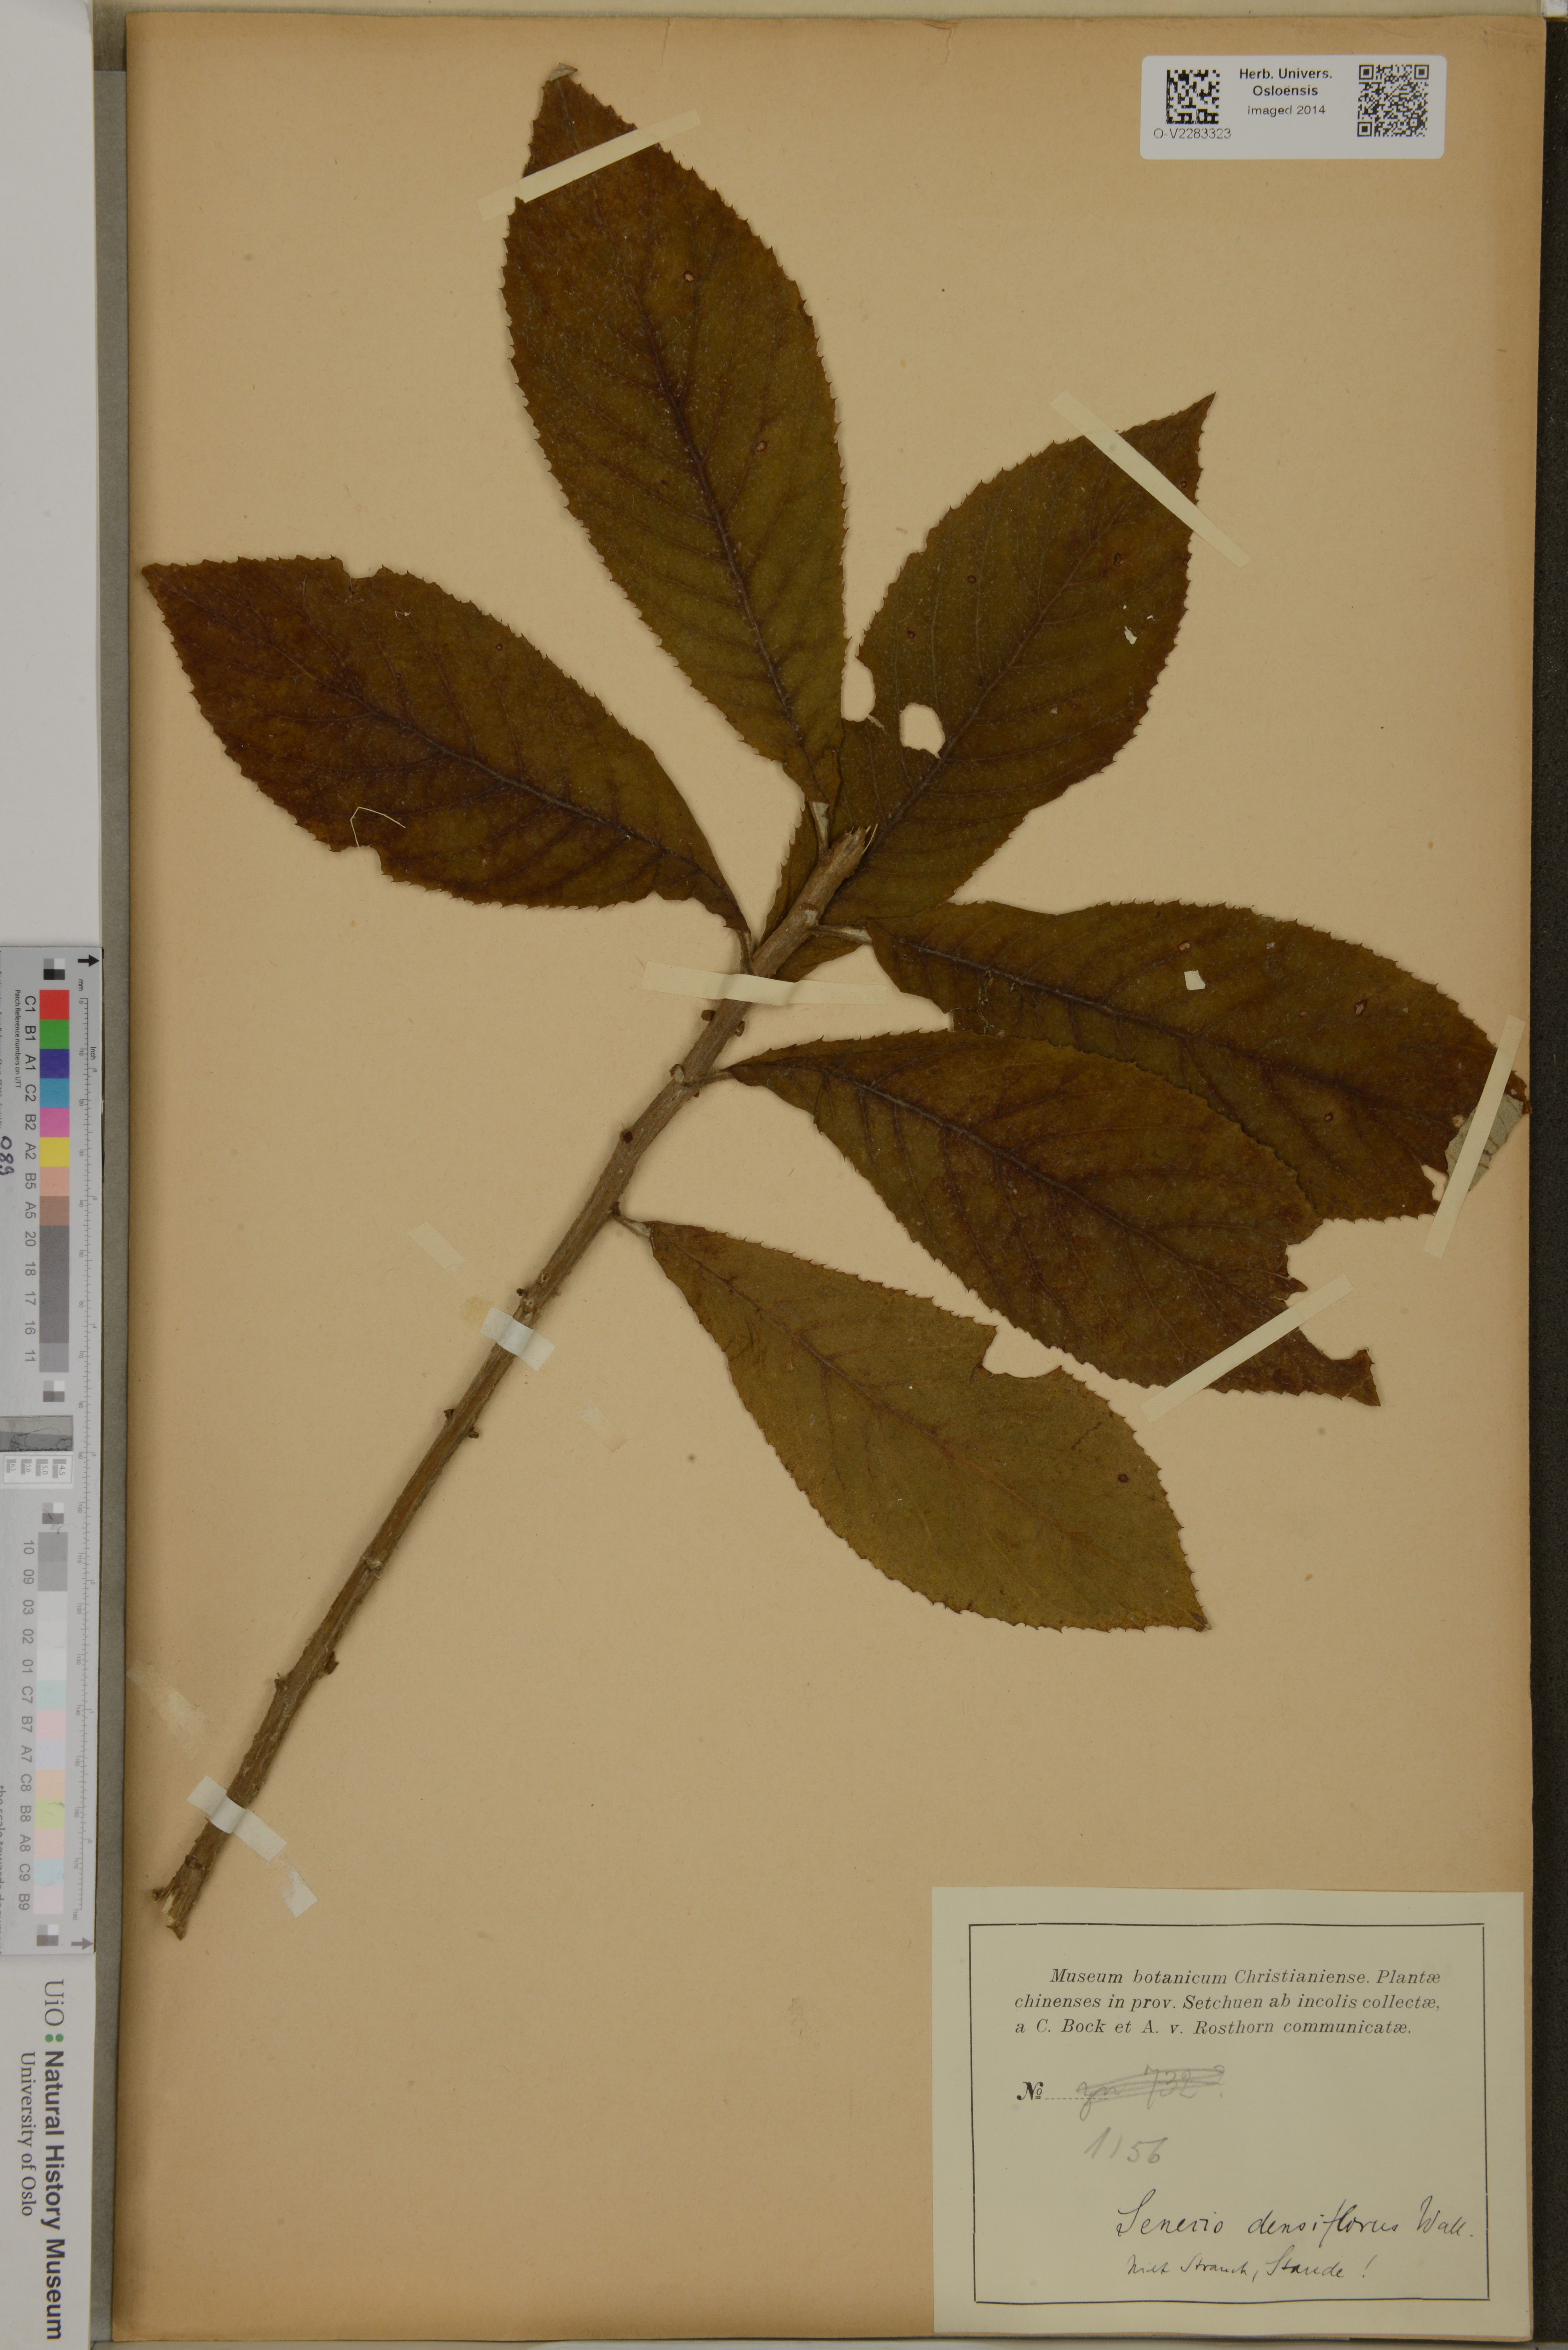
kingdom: Plantae
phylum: Tracheophyta
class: Magnoliopsida
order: Asterales
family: Asteraceae
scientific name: Asteraceae
